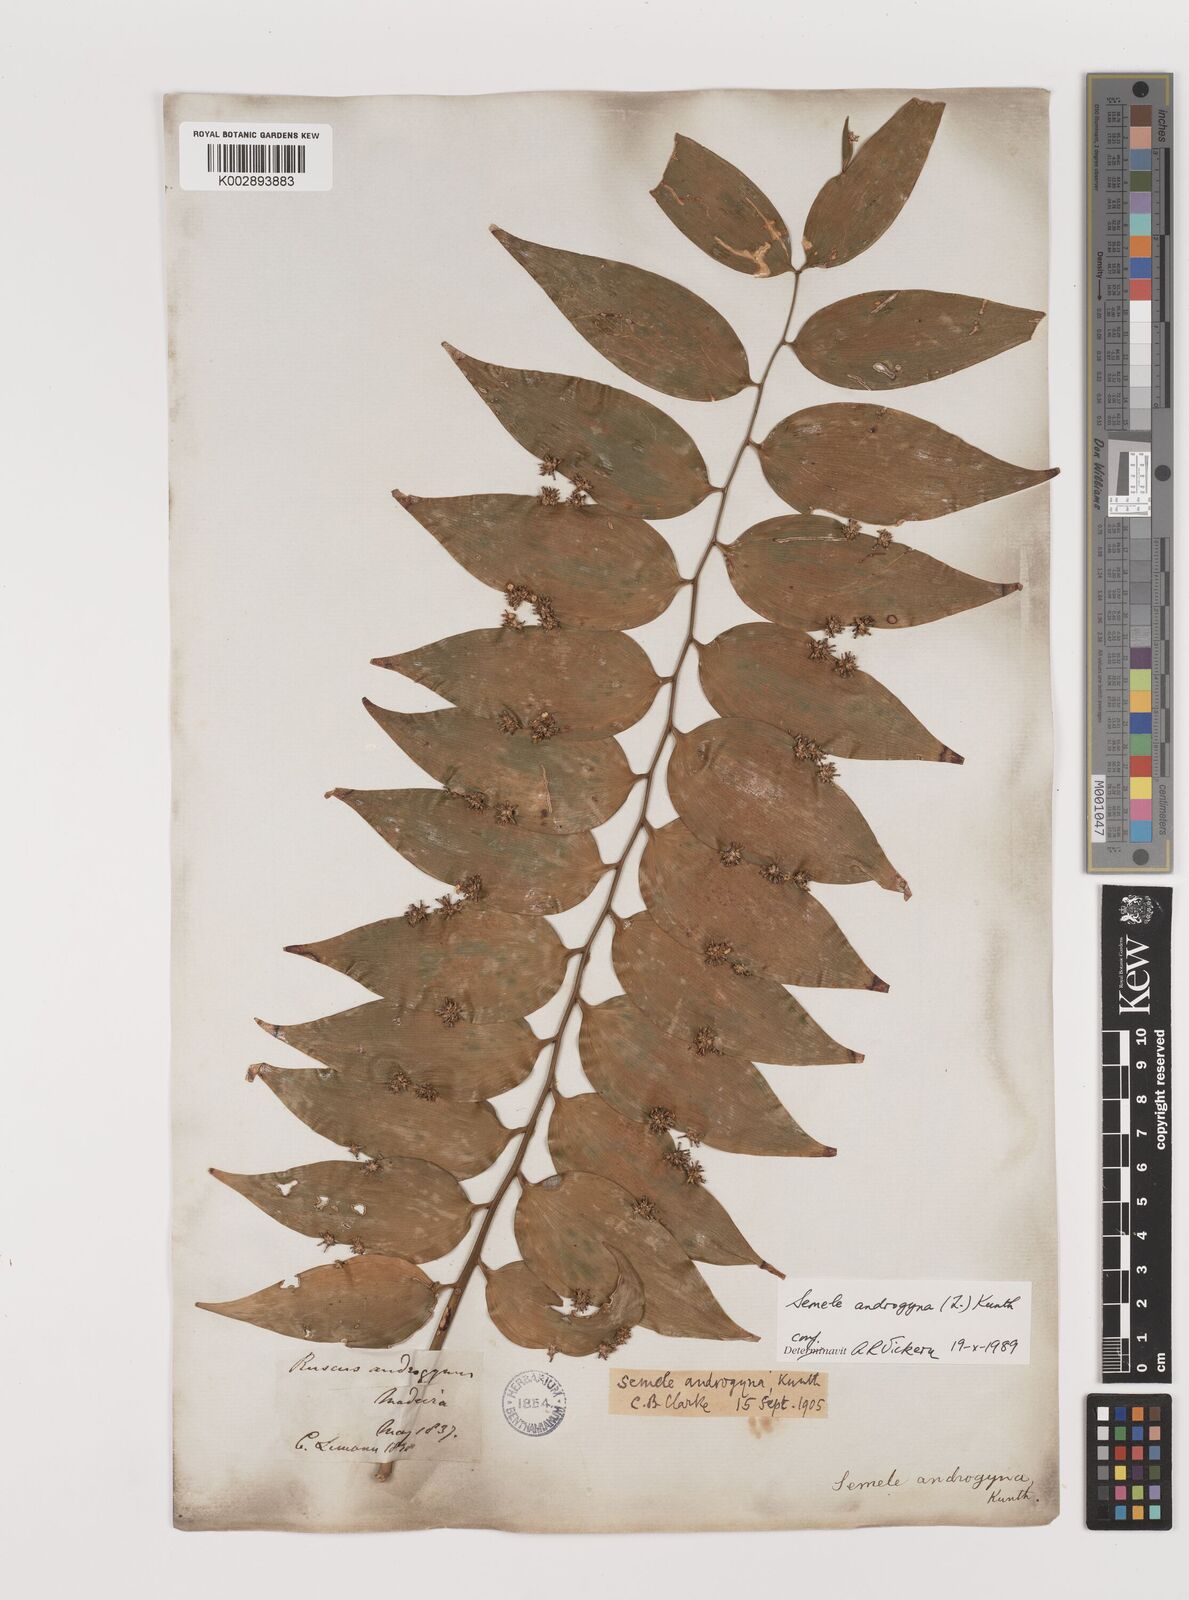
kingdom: Plantae
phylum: Tracheophyta
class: Liliopsida
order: Asparagales
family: Asparagaceae
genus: Semele
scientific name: Semele androgyna
